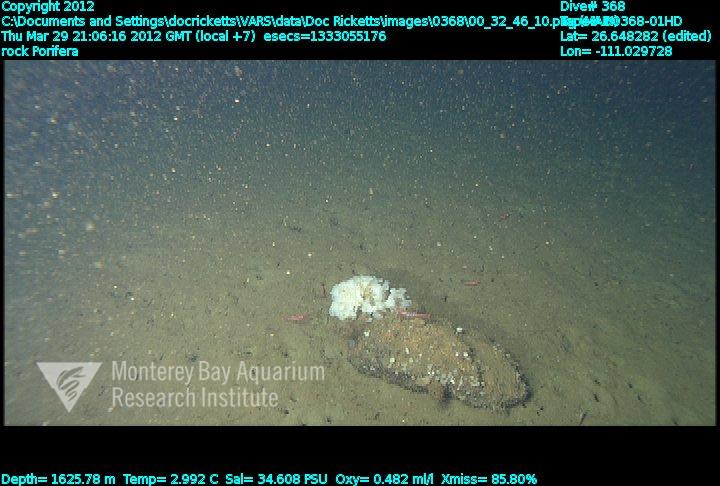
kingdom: Animalia
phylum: Porifera
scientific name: Porifera
